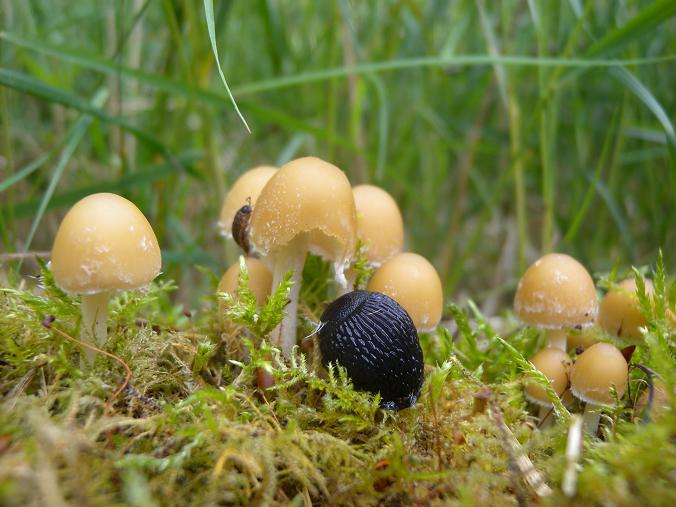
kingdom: Fungi
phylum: Basidiomycota
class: Agaricomycetes
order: Agaricales
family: Psathyrellaceae
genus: Candolleomyces
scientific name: Candolleomyces candolleanus
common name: Candolles mørkhat
